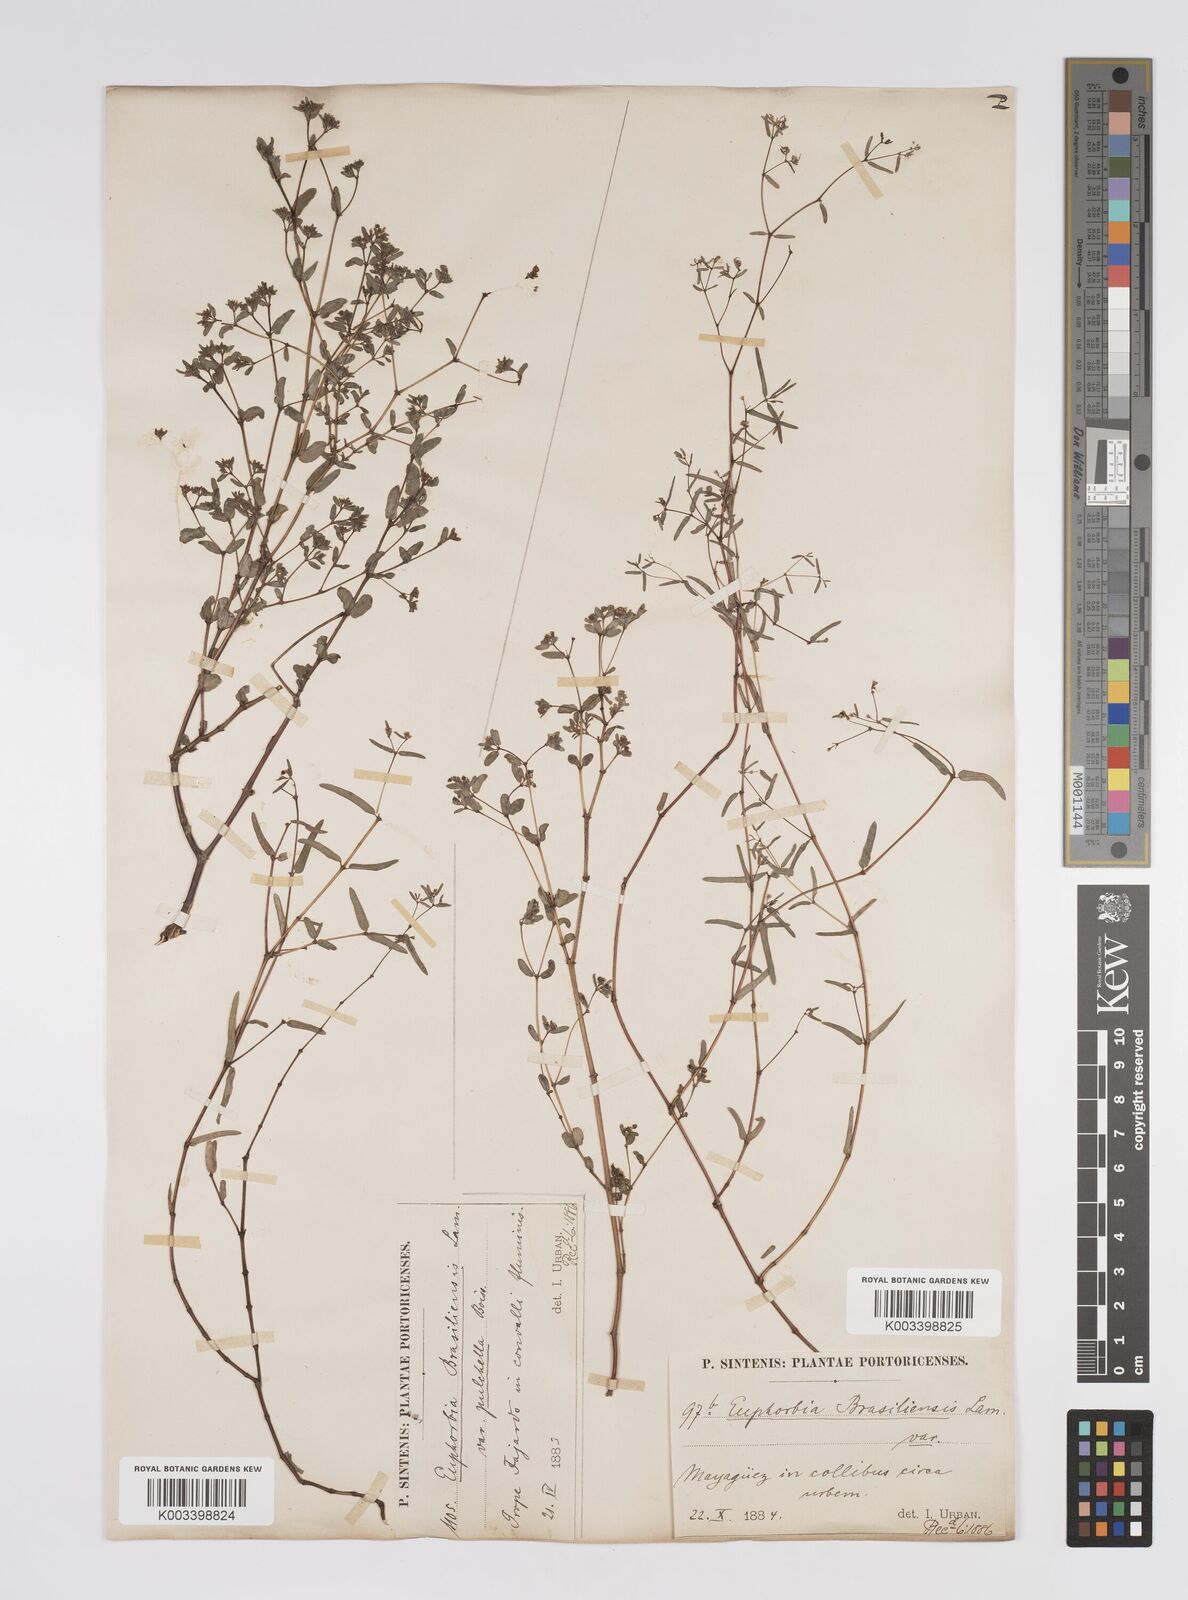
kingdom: Plantae
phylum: Tracheophyta
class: Magnoliopsida
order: Malpighiales
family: Euphorbiaceae
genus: Euphorbia
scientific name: Euphorbia hyssopifolia
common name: Hyssopleaf sandmat
